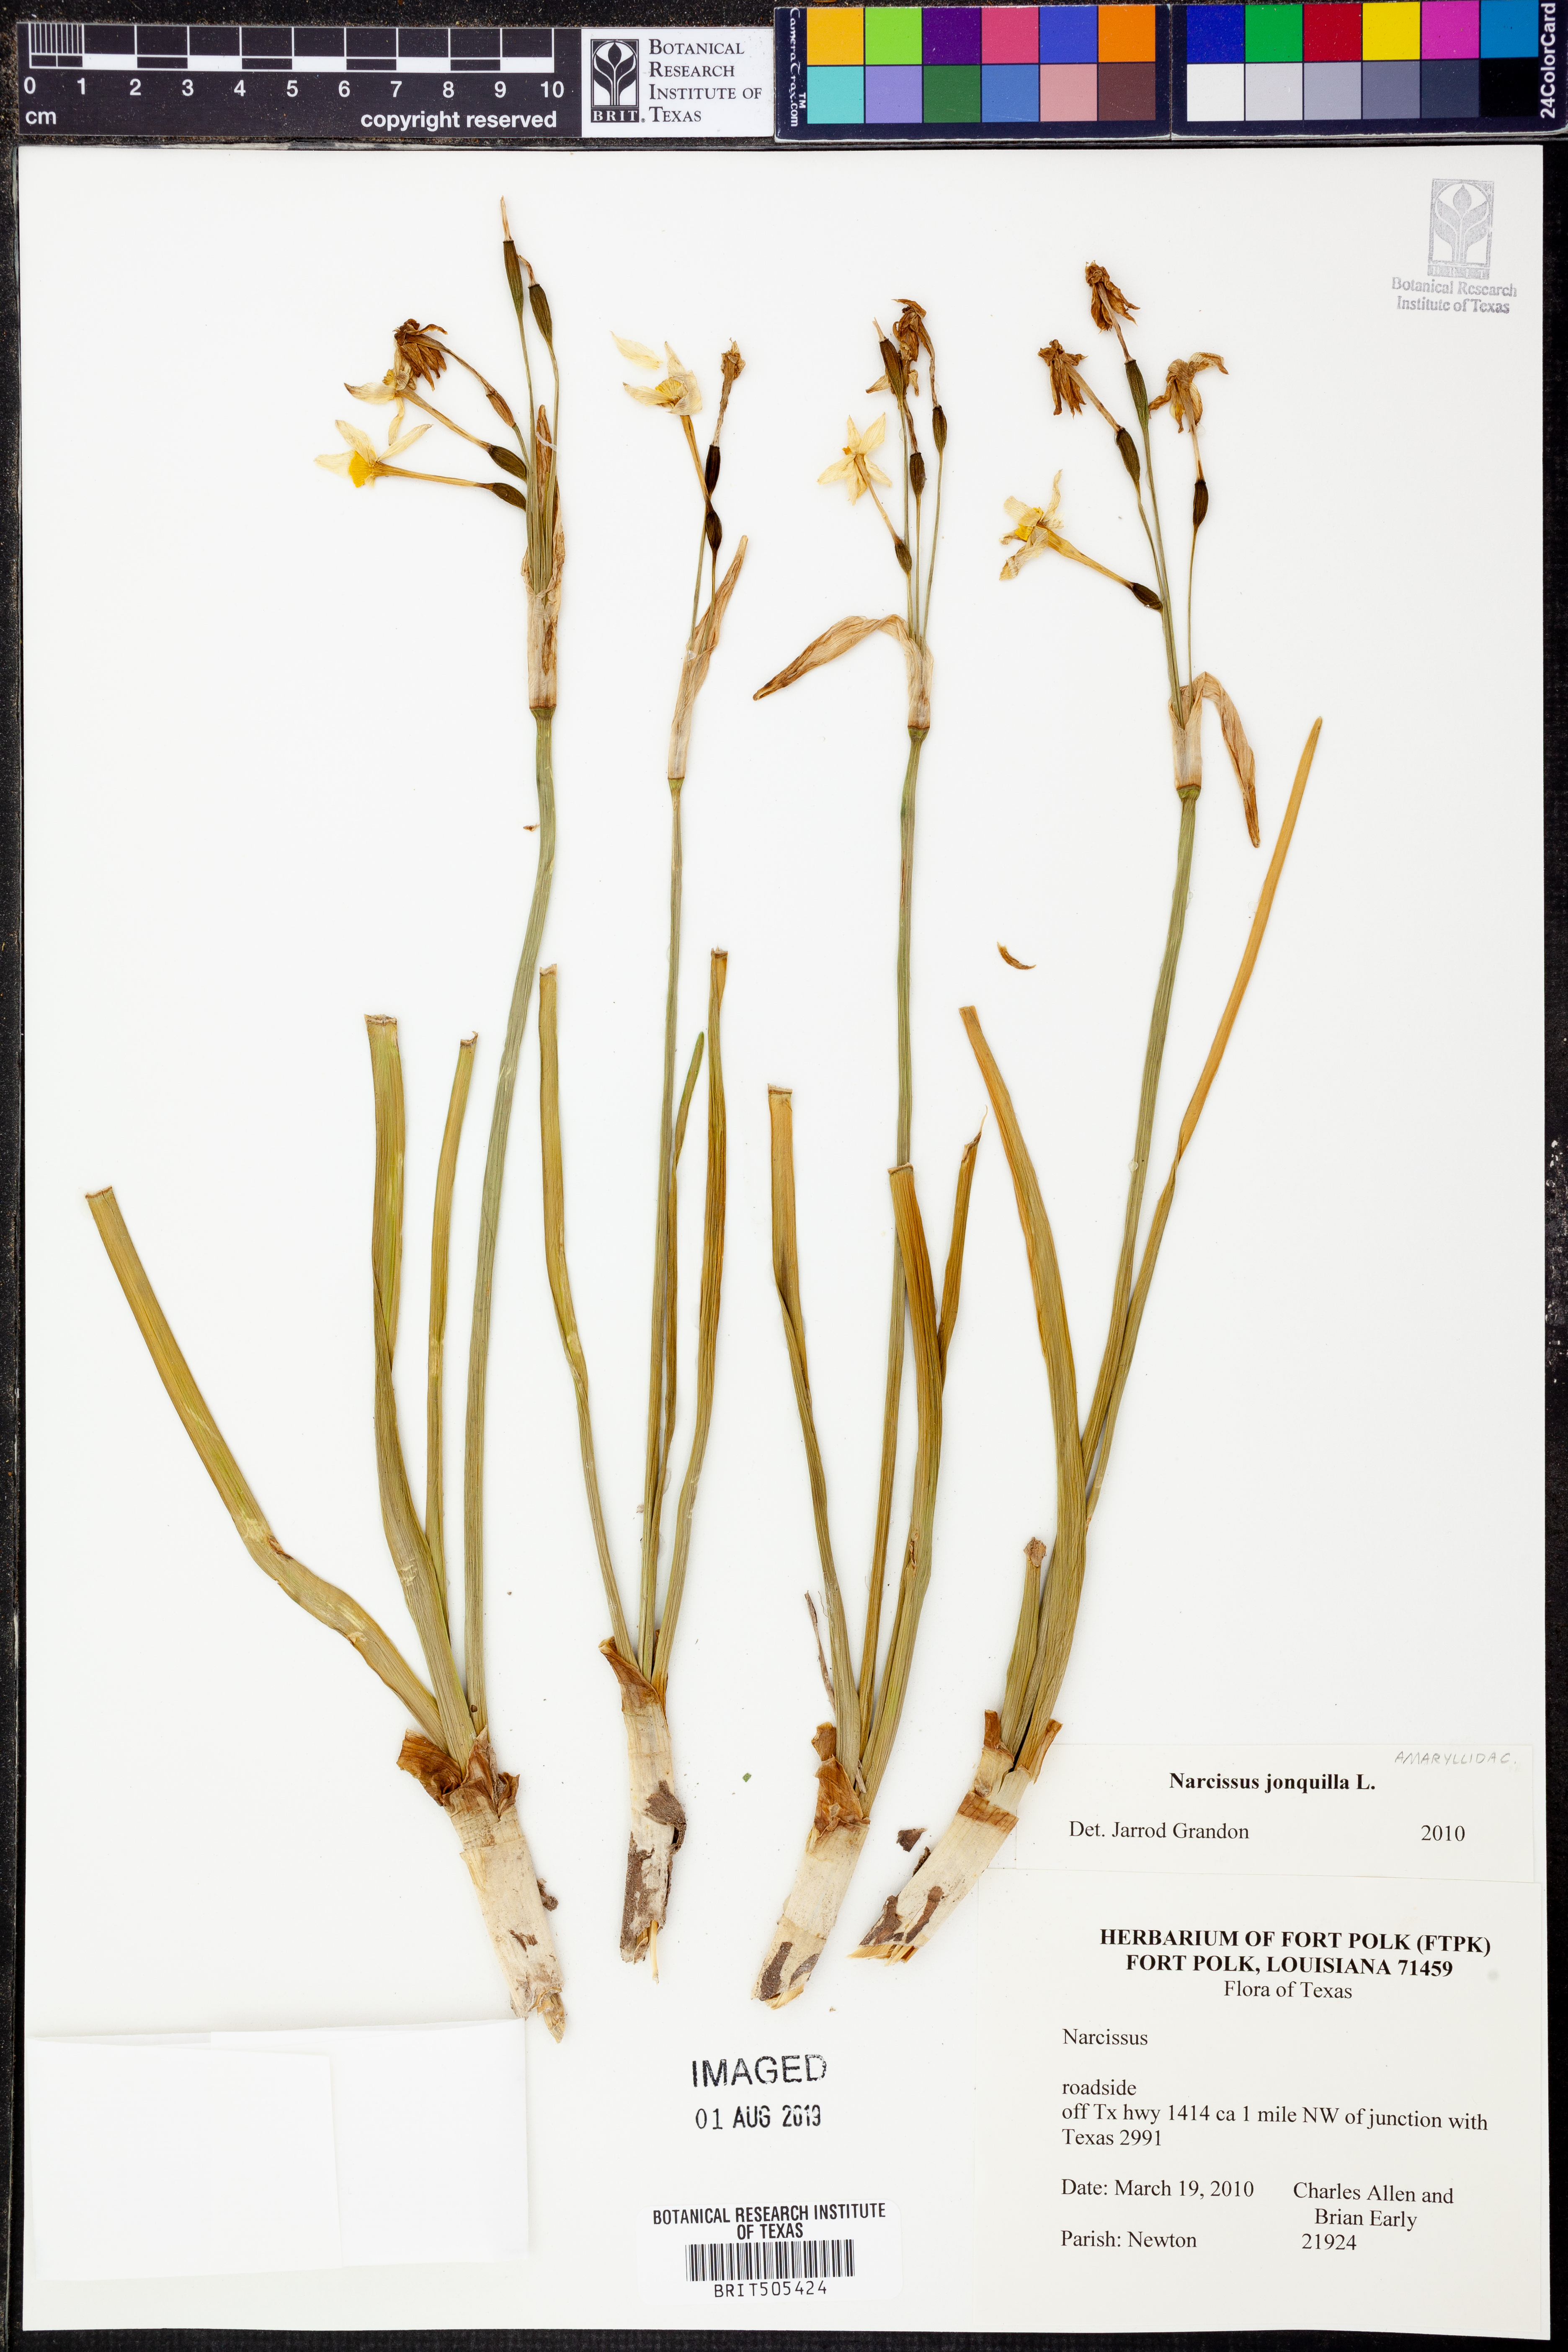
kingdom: Plantae
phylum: Tracheophyta
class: Liliopsida
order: Asparagales
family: Amaryllidaceae
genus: Narcissus
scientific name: Narcissus jonquilla
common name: Jonquil
